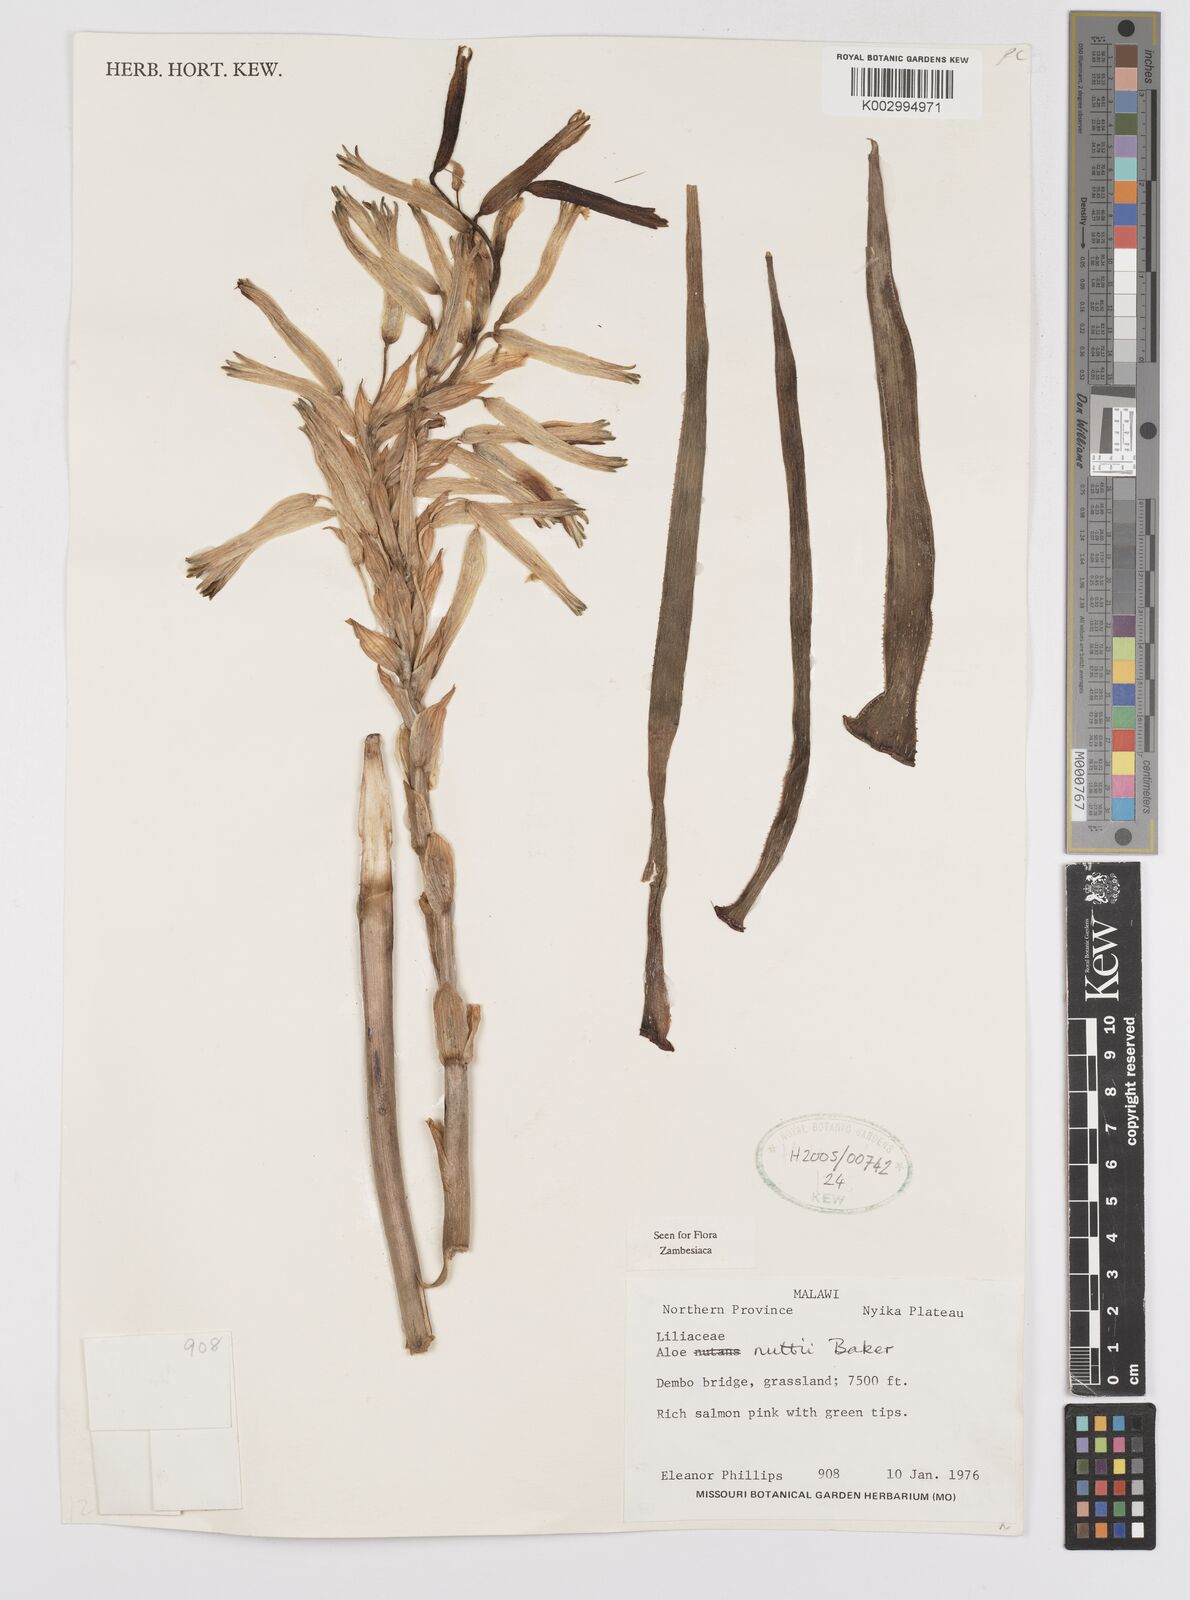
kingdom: Plantae
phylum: Tracheophyta
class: Liliopsida
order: Asparagales
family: Asphodelaceae
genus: Aloe
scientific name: Aloe nuttii
